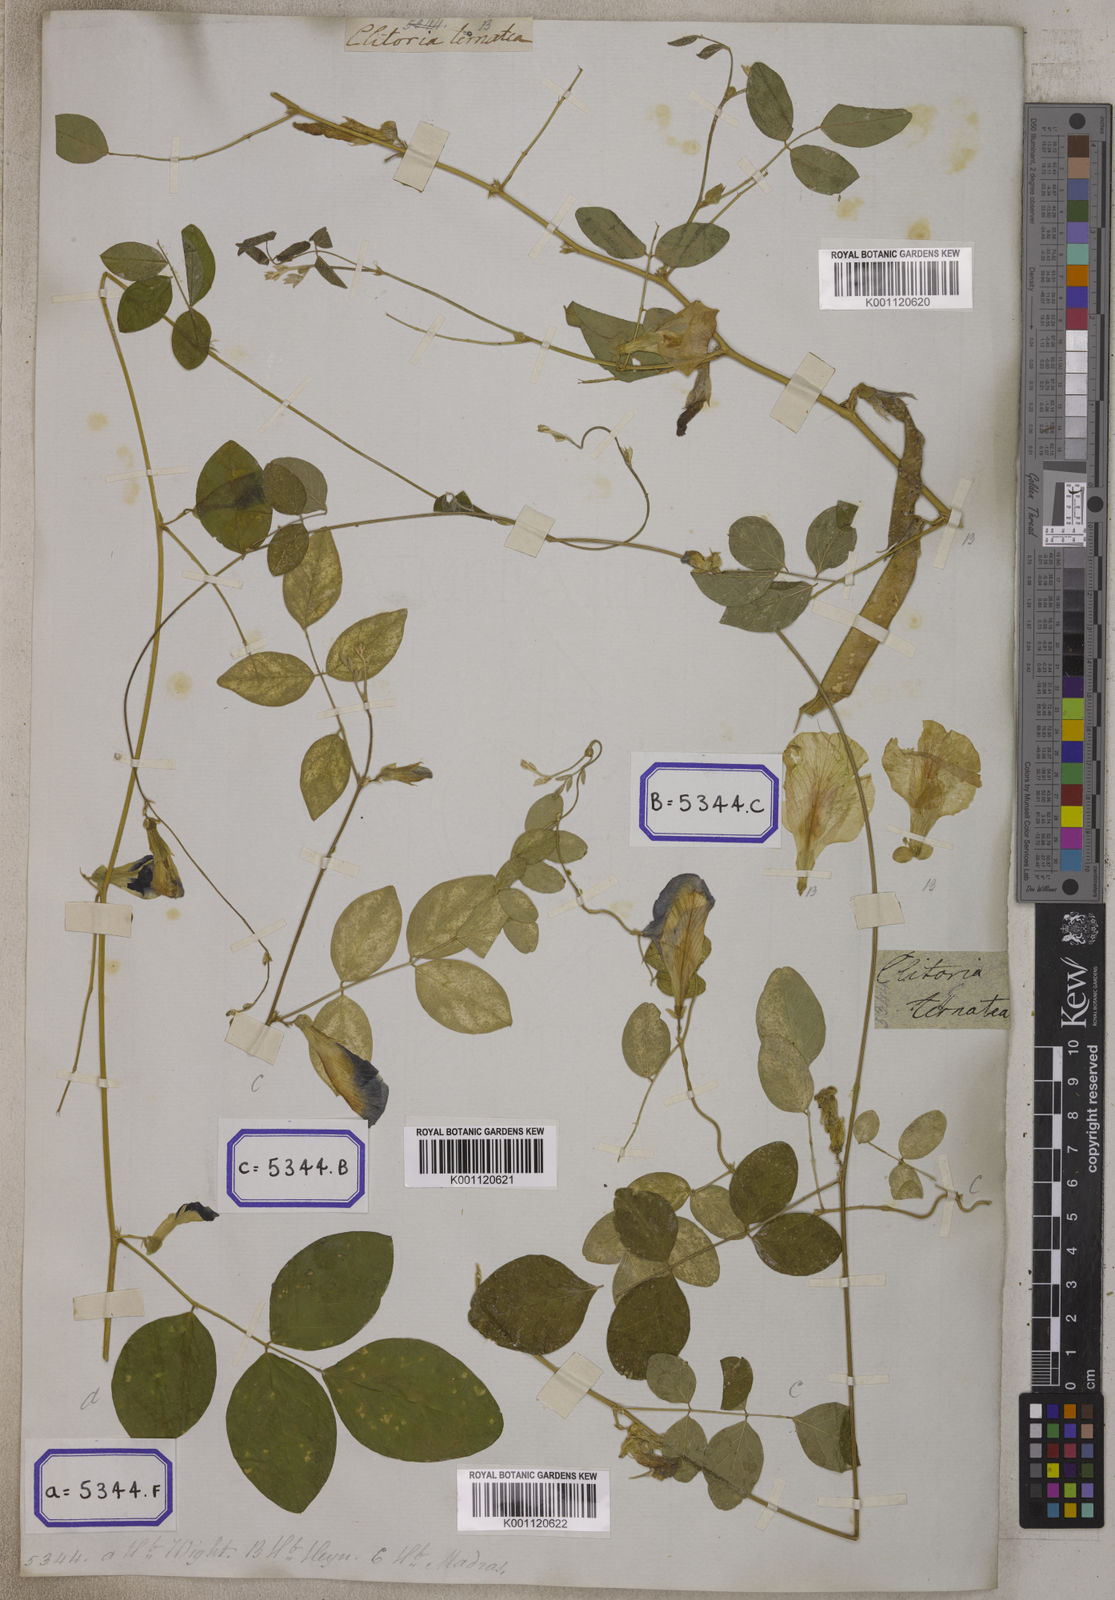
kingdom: Plantae
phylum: Tracheophyta
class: Magnoliopsida
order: Fabales
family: Fabaceae
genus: Clitoria
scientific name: Clitoria ternatea
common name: Asian pigeonwings
